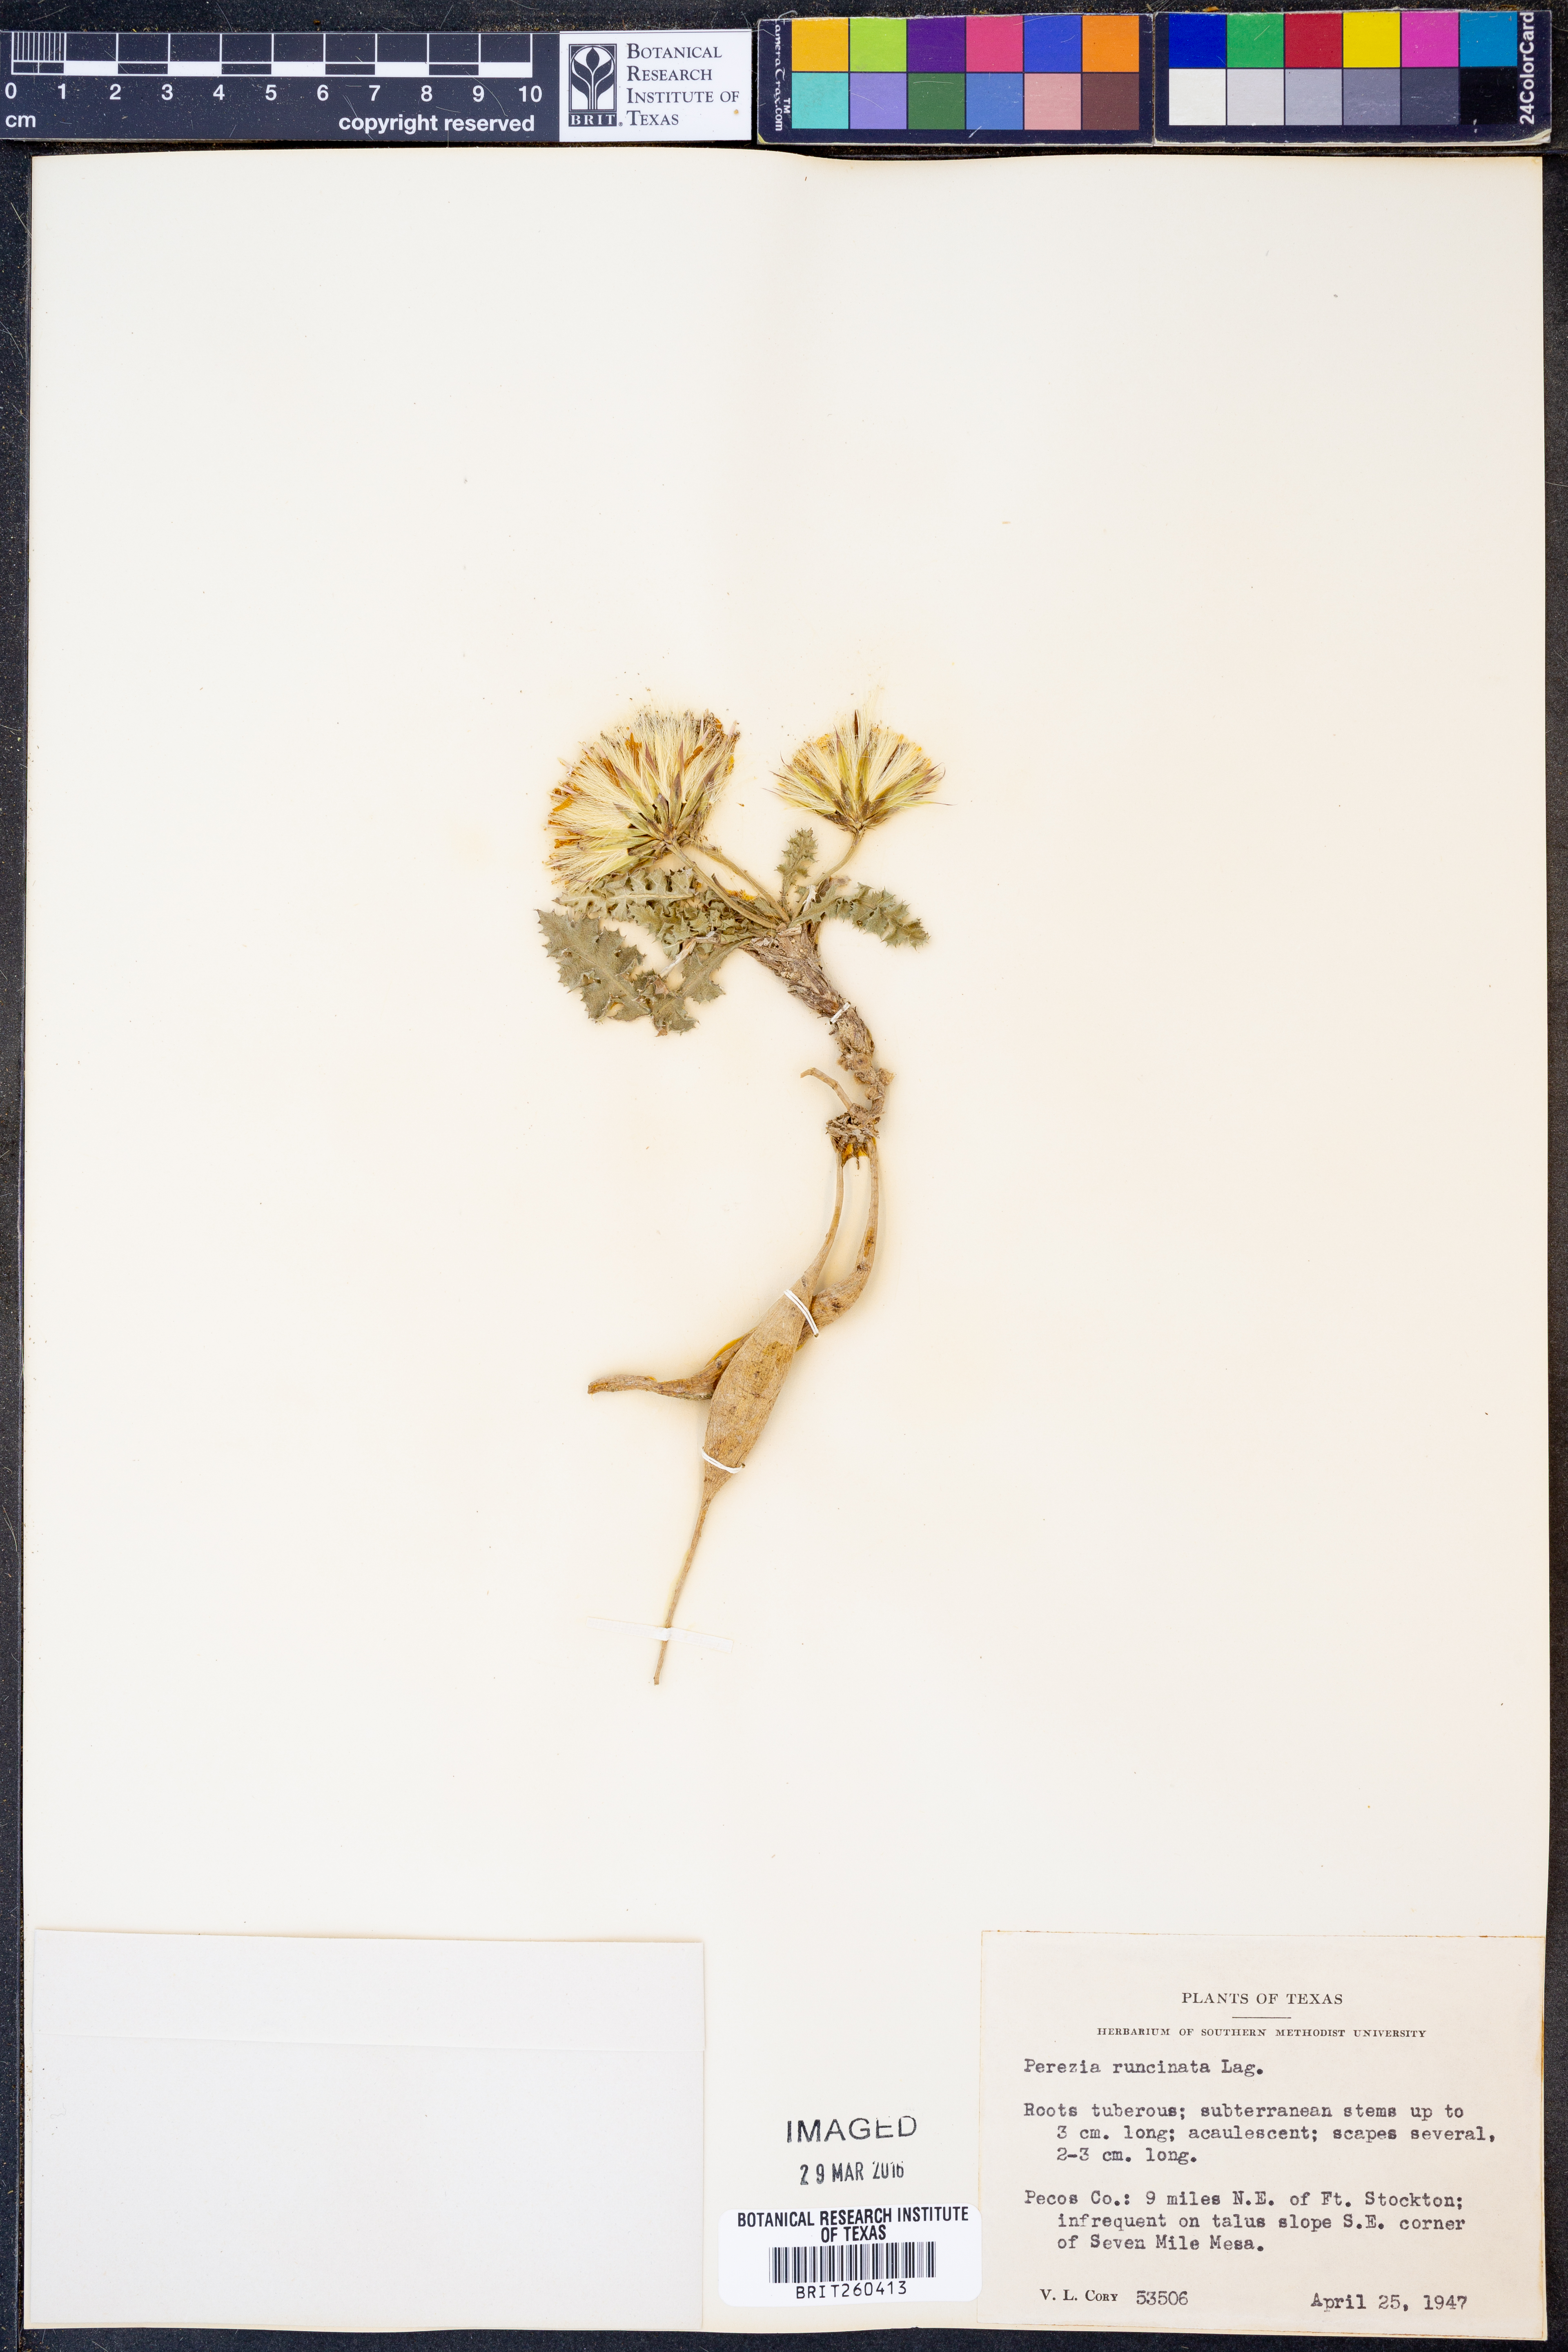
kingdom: Plantae
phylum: Tracheophyta
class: Magnoliopsida
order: Asterales
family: Asteraceae
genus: Acourtia
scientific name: Acourtia runcinata
